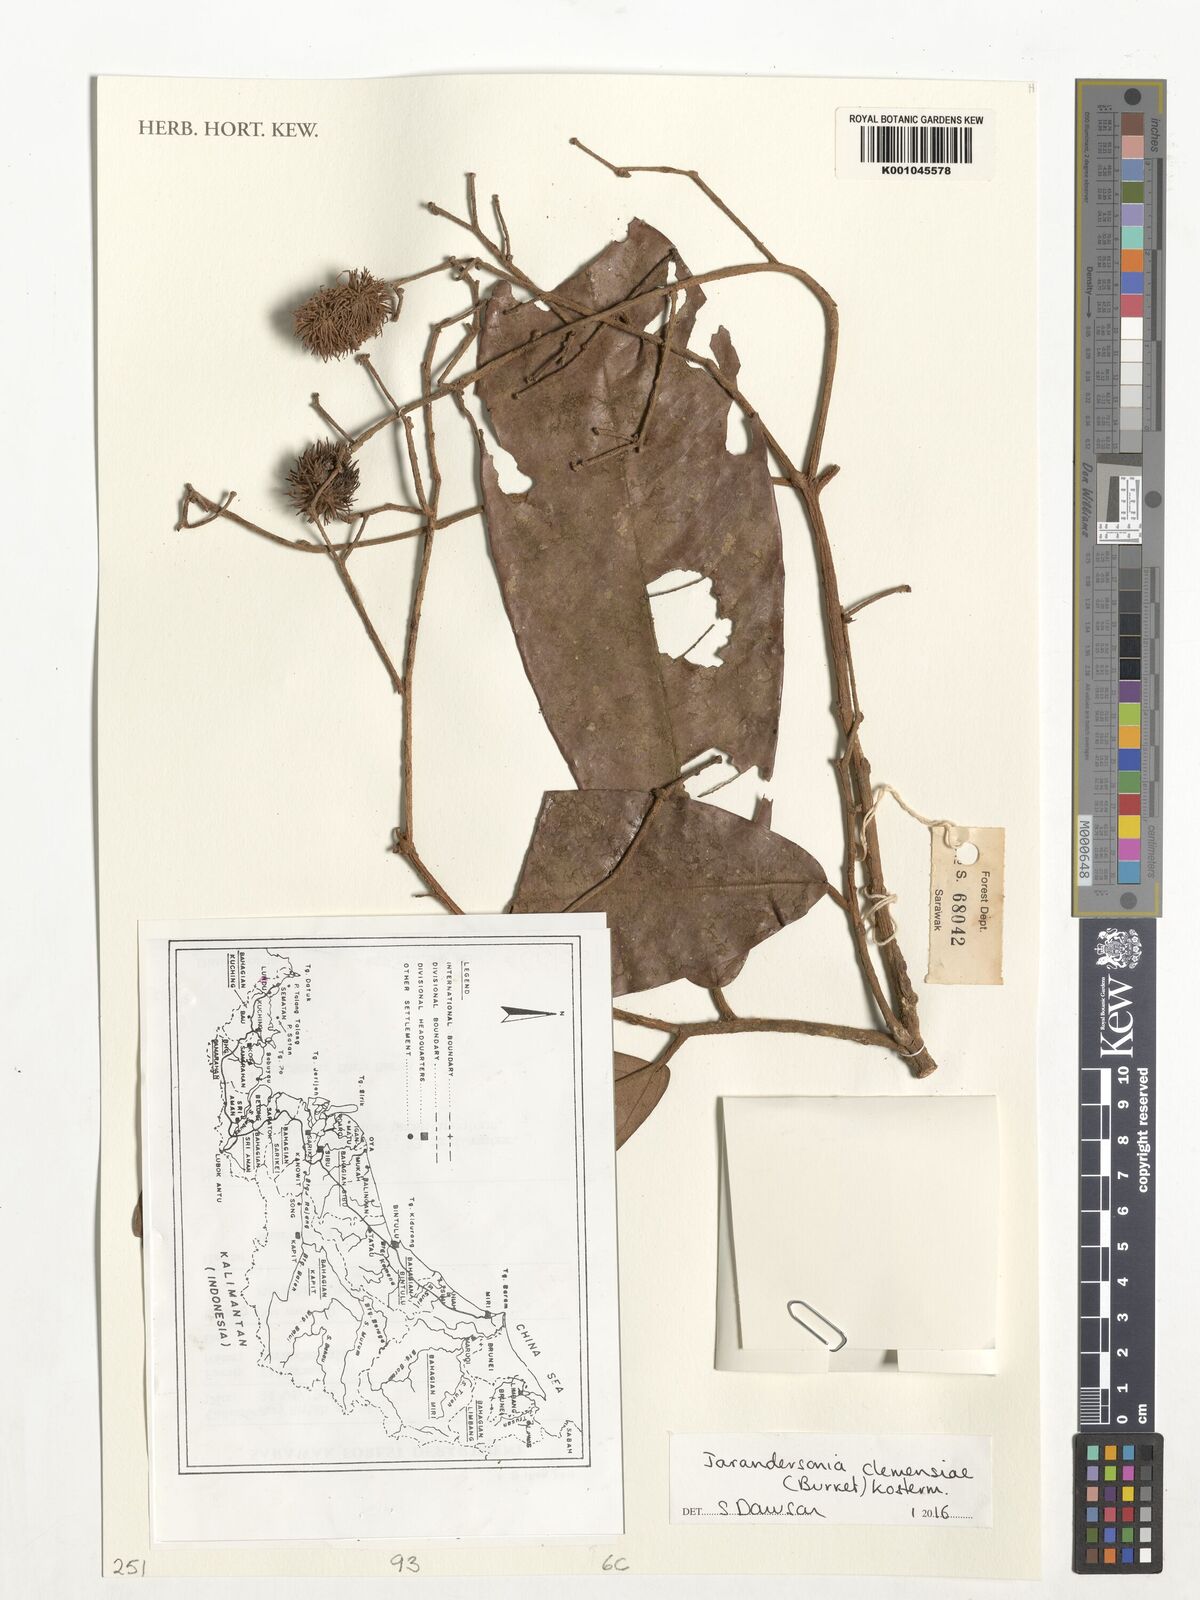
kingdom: Plantae
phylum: Tracheophyta
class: Magnoliopsida
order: Malvales
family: Malvaceae
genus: Jarandersonia
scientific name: Jarandersonia clemensiae
